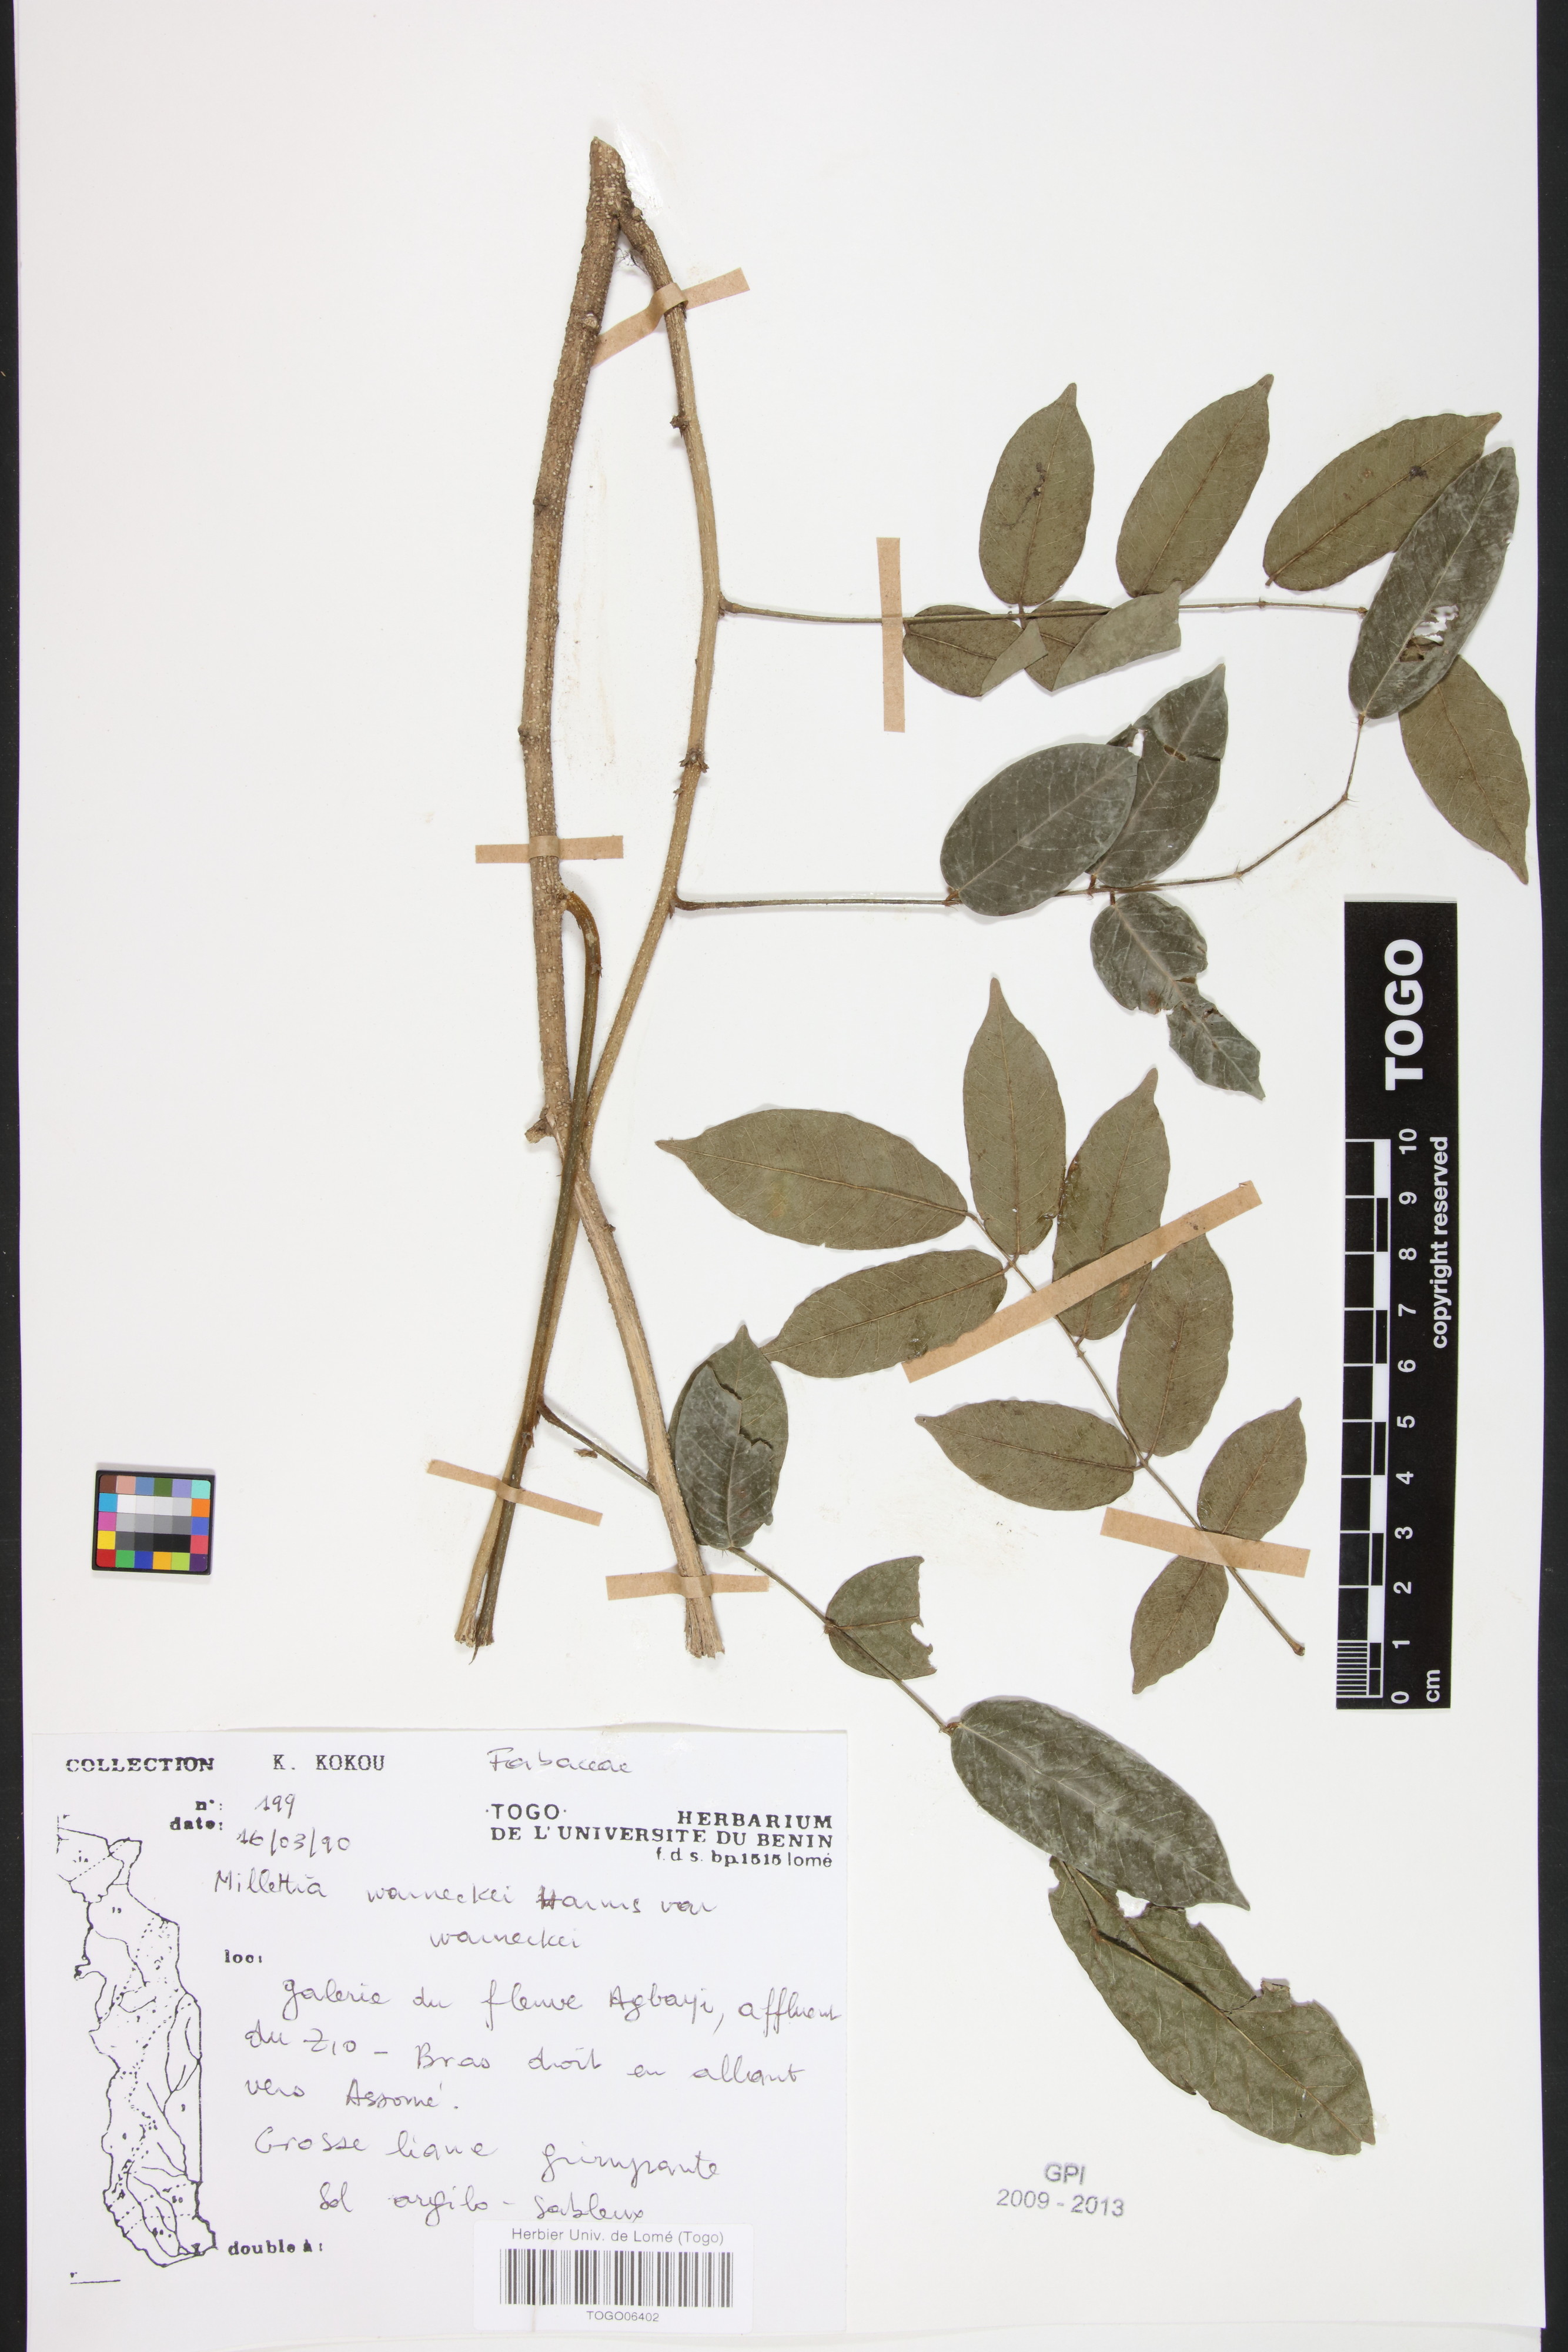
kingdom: Plantae
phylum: Tracheophyta
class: Magnoliopsida
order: Fabales
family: Fabaceae
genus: Millettia
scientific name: Millettia warneckei
